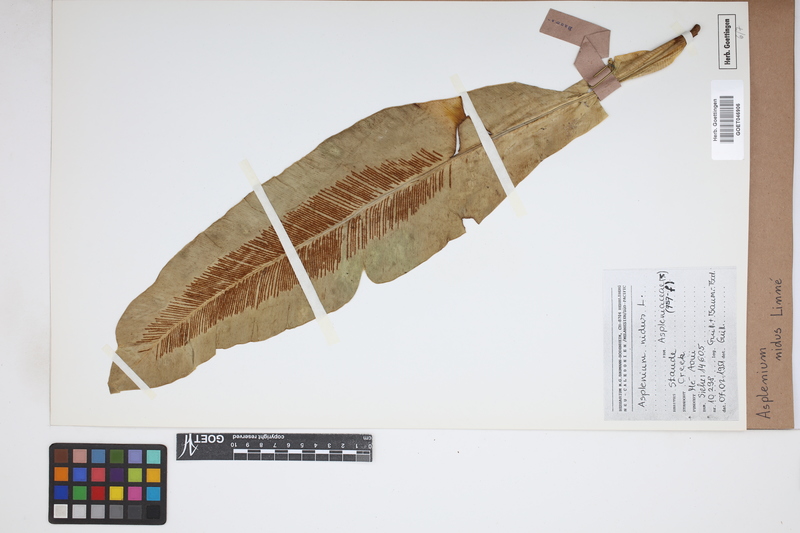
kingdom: Plantae
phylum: Tracheophyta
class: Polypodiopsida
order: Polypodiales
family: Aspleniaceae
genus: Asplenium
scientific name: Asplenium nidus
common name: Bird's-nest fern
